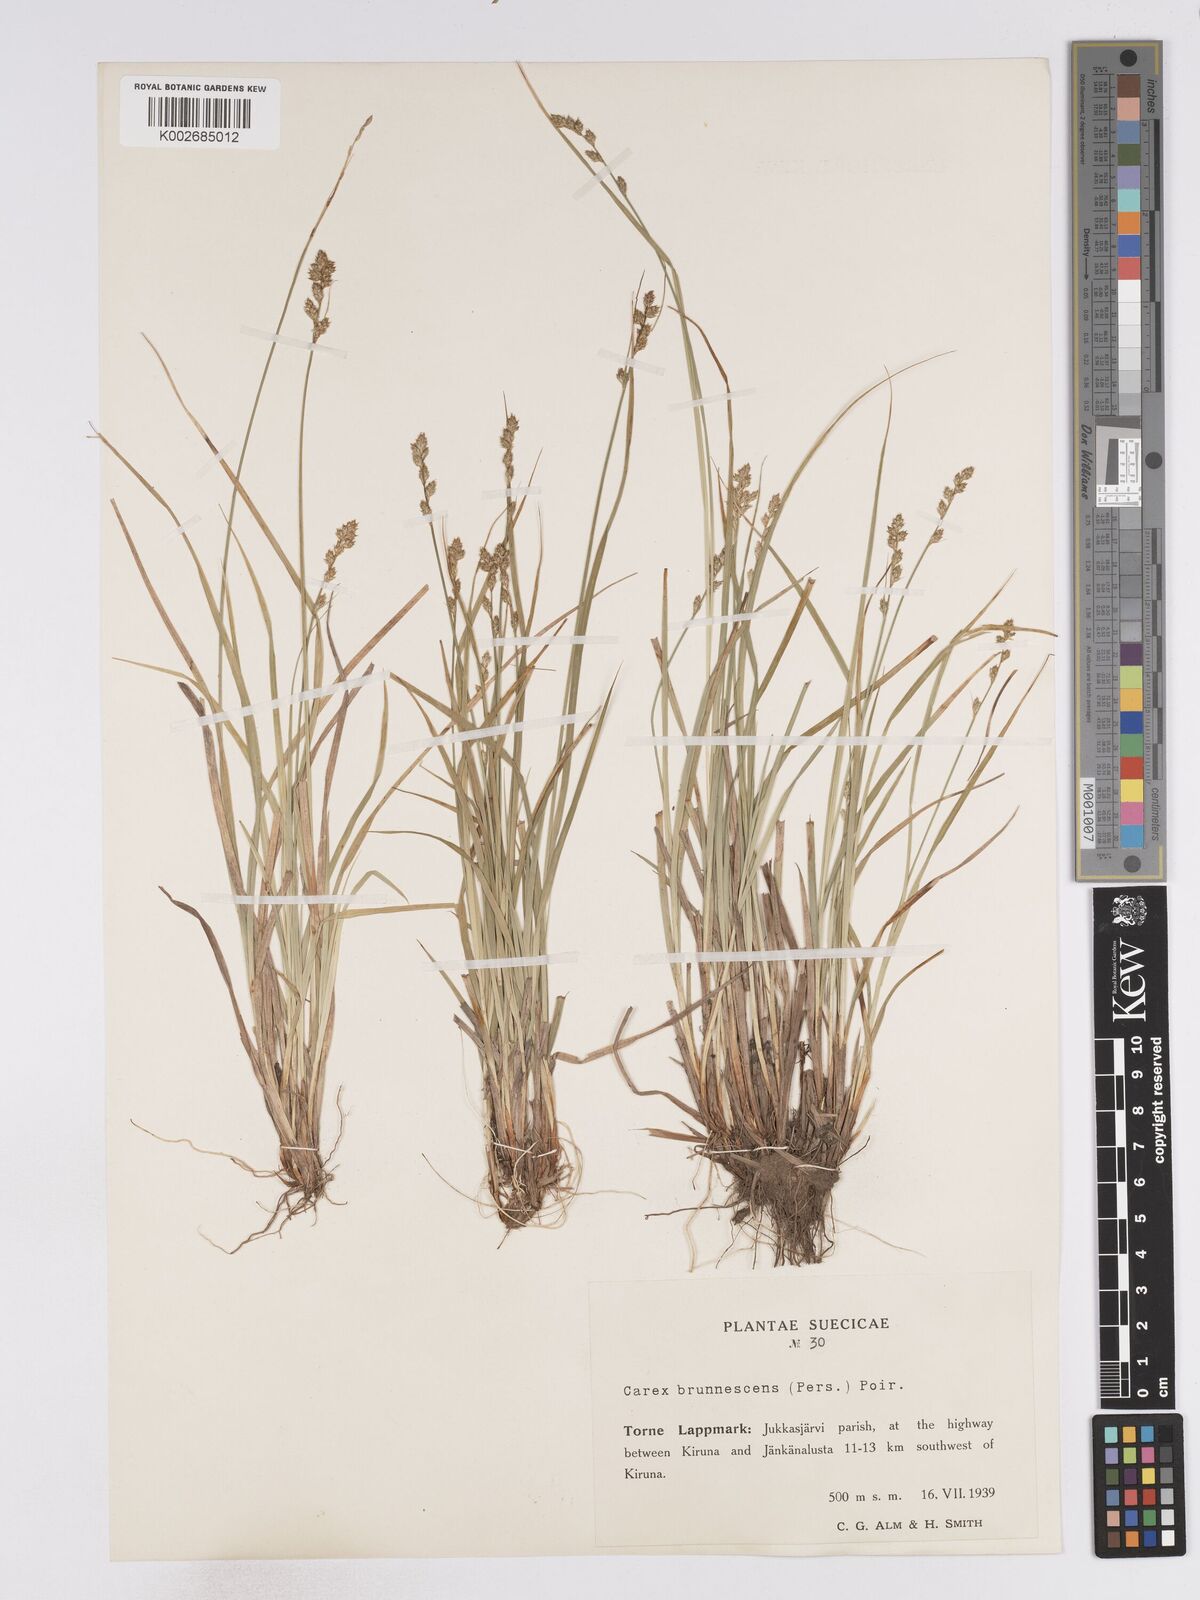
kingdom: Plantae
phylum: Tracheophyta
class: Liliopsida
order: Poales
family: Cyperaceae
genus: Carex
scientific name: Carex brunnescens
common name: Brown sedge
